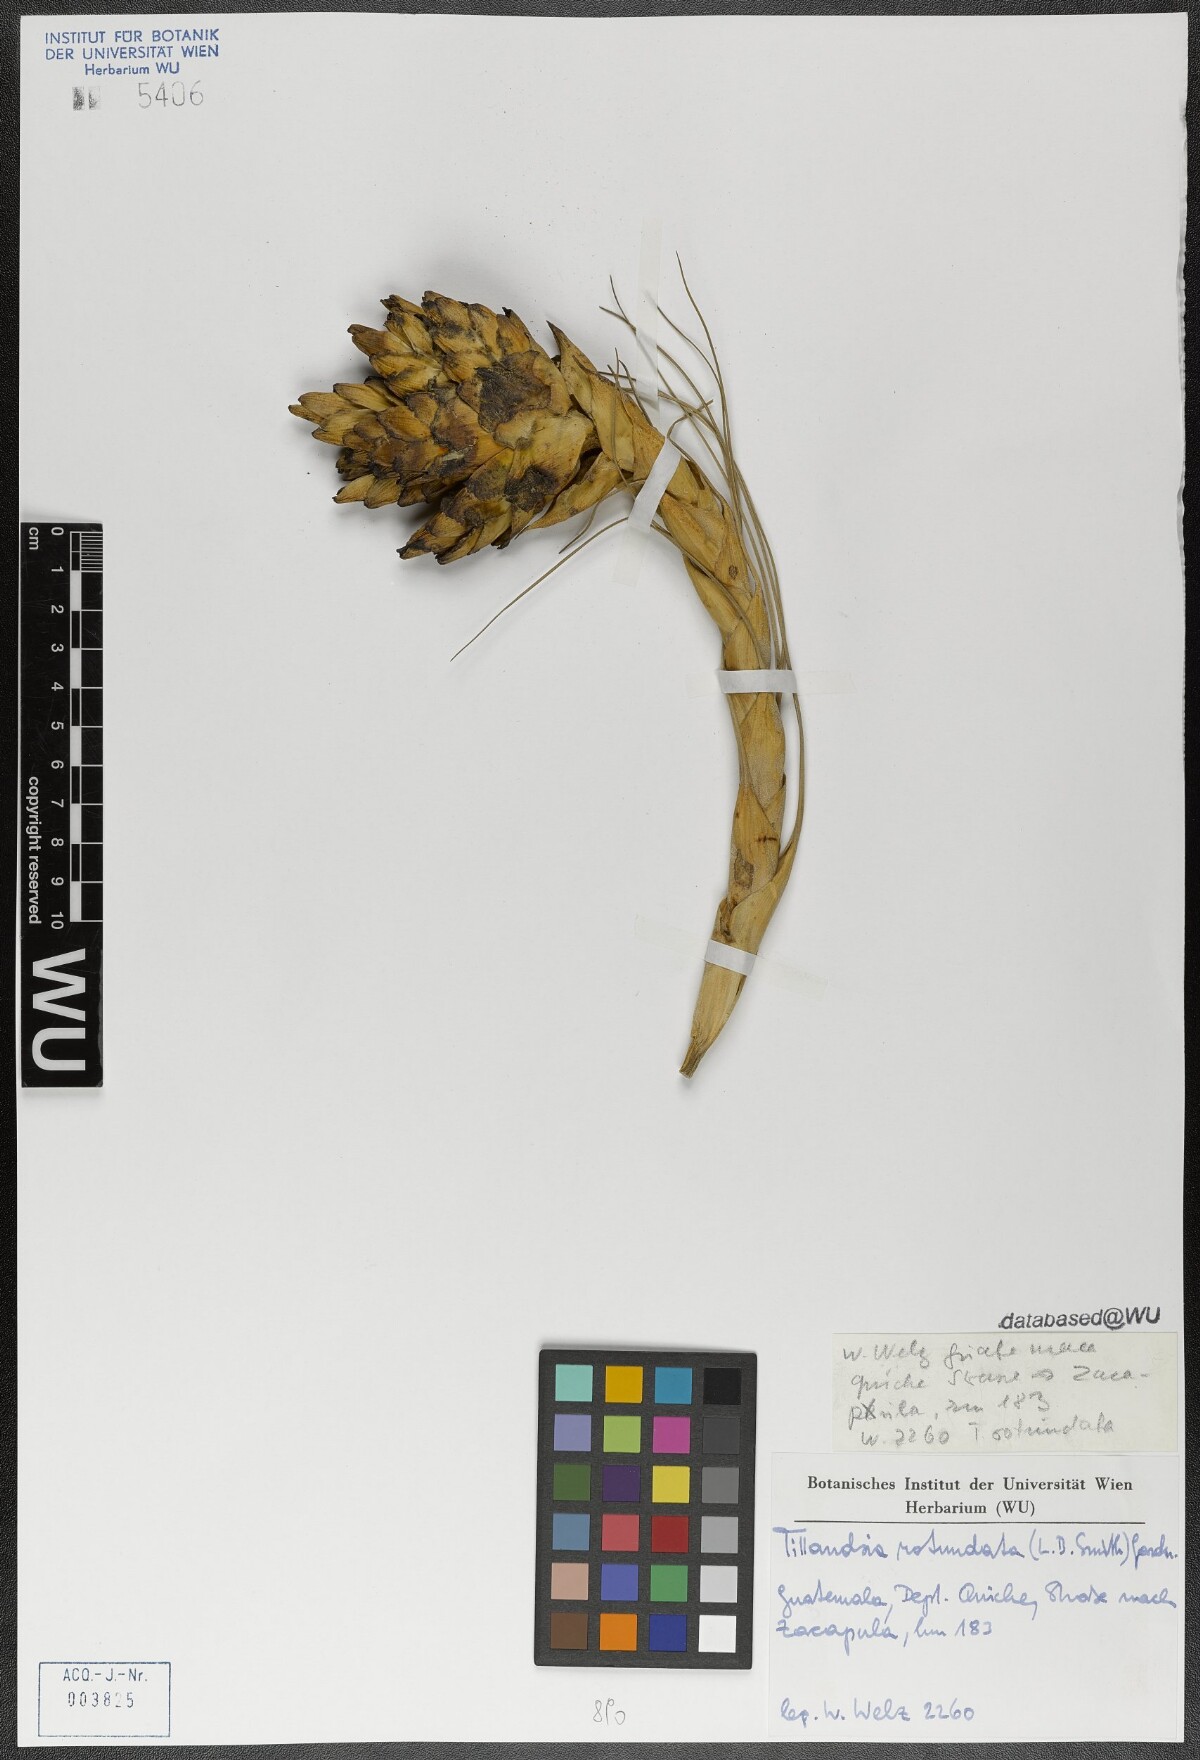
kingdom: Plantae
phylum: Tracheophyta
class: Liliopsida
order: Poales
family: Bromeliaceae
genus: Tillandsia
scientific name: Tillandsia rotundata
